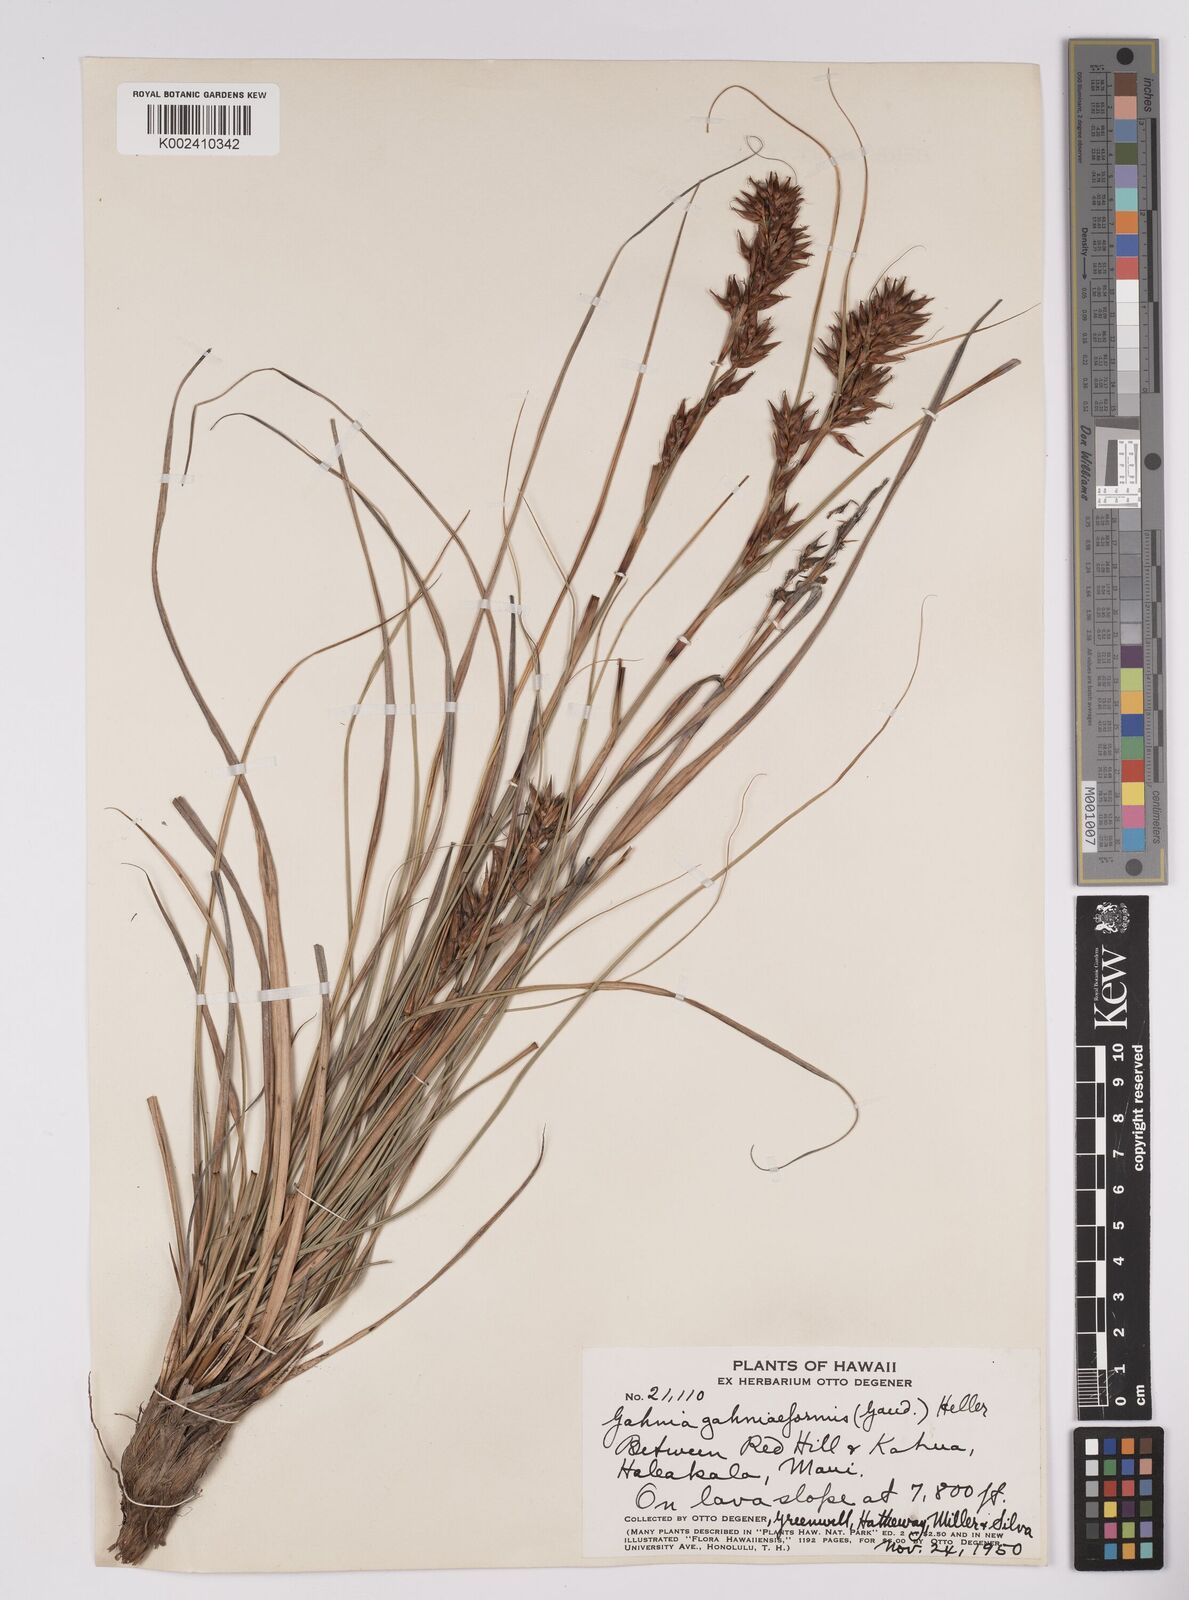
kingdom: Plantae
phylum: Tracheophyta
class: Liliopsida
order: Poales
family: Cyperaceae
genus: Morelotia
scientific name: Morelotia gahniiformis
